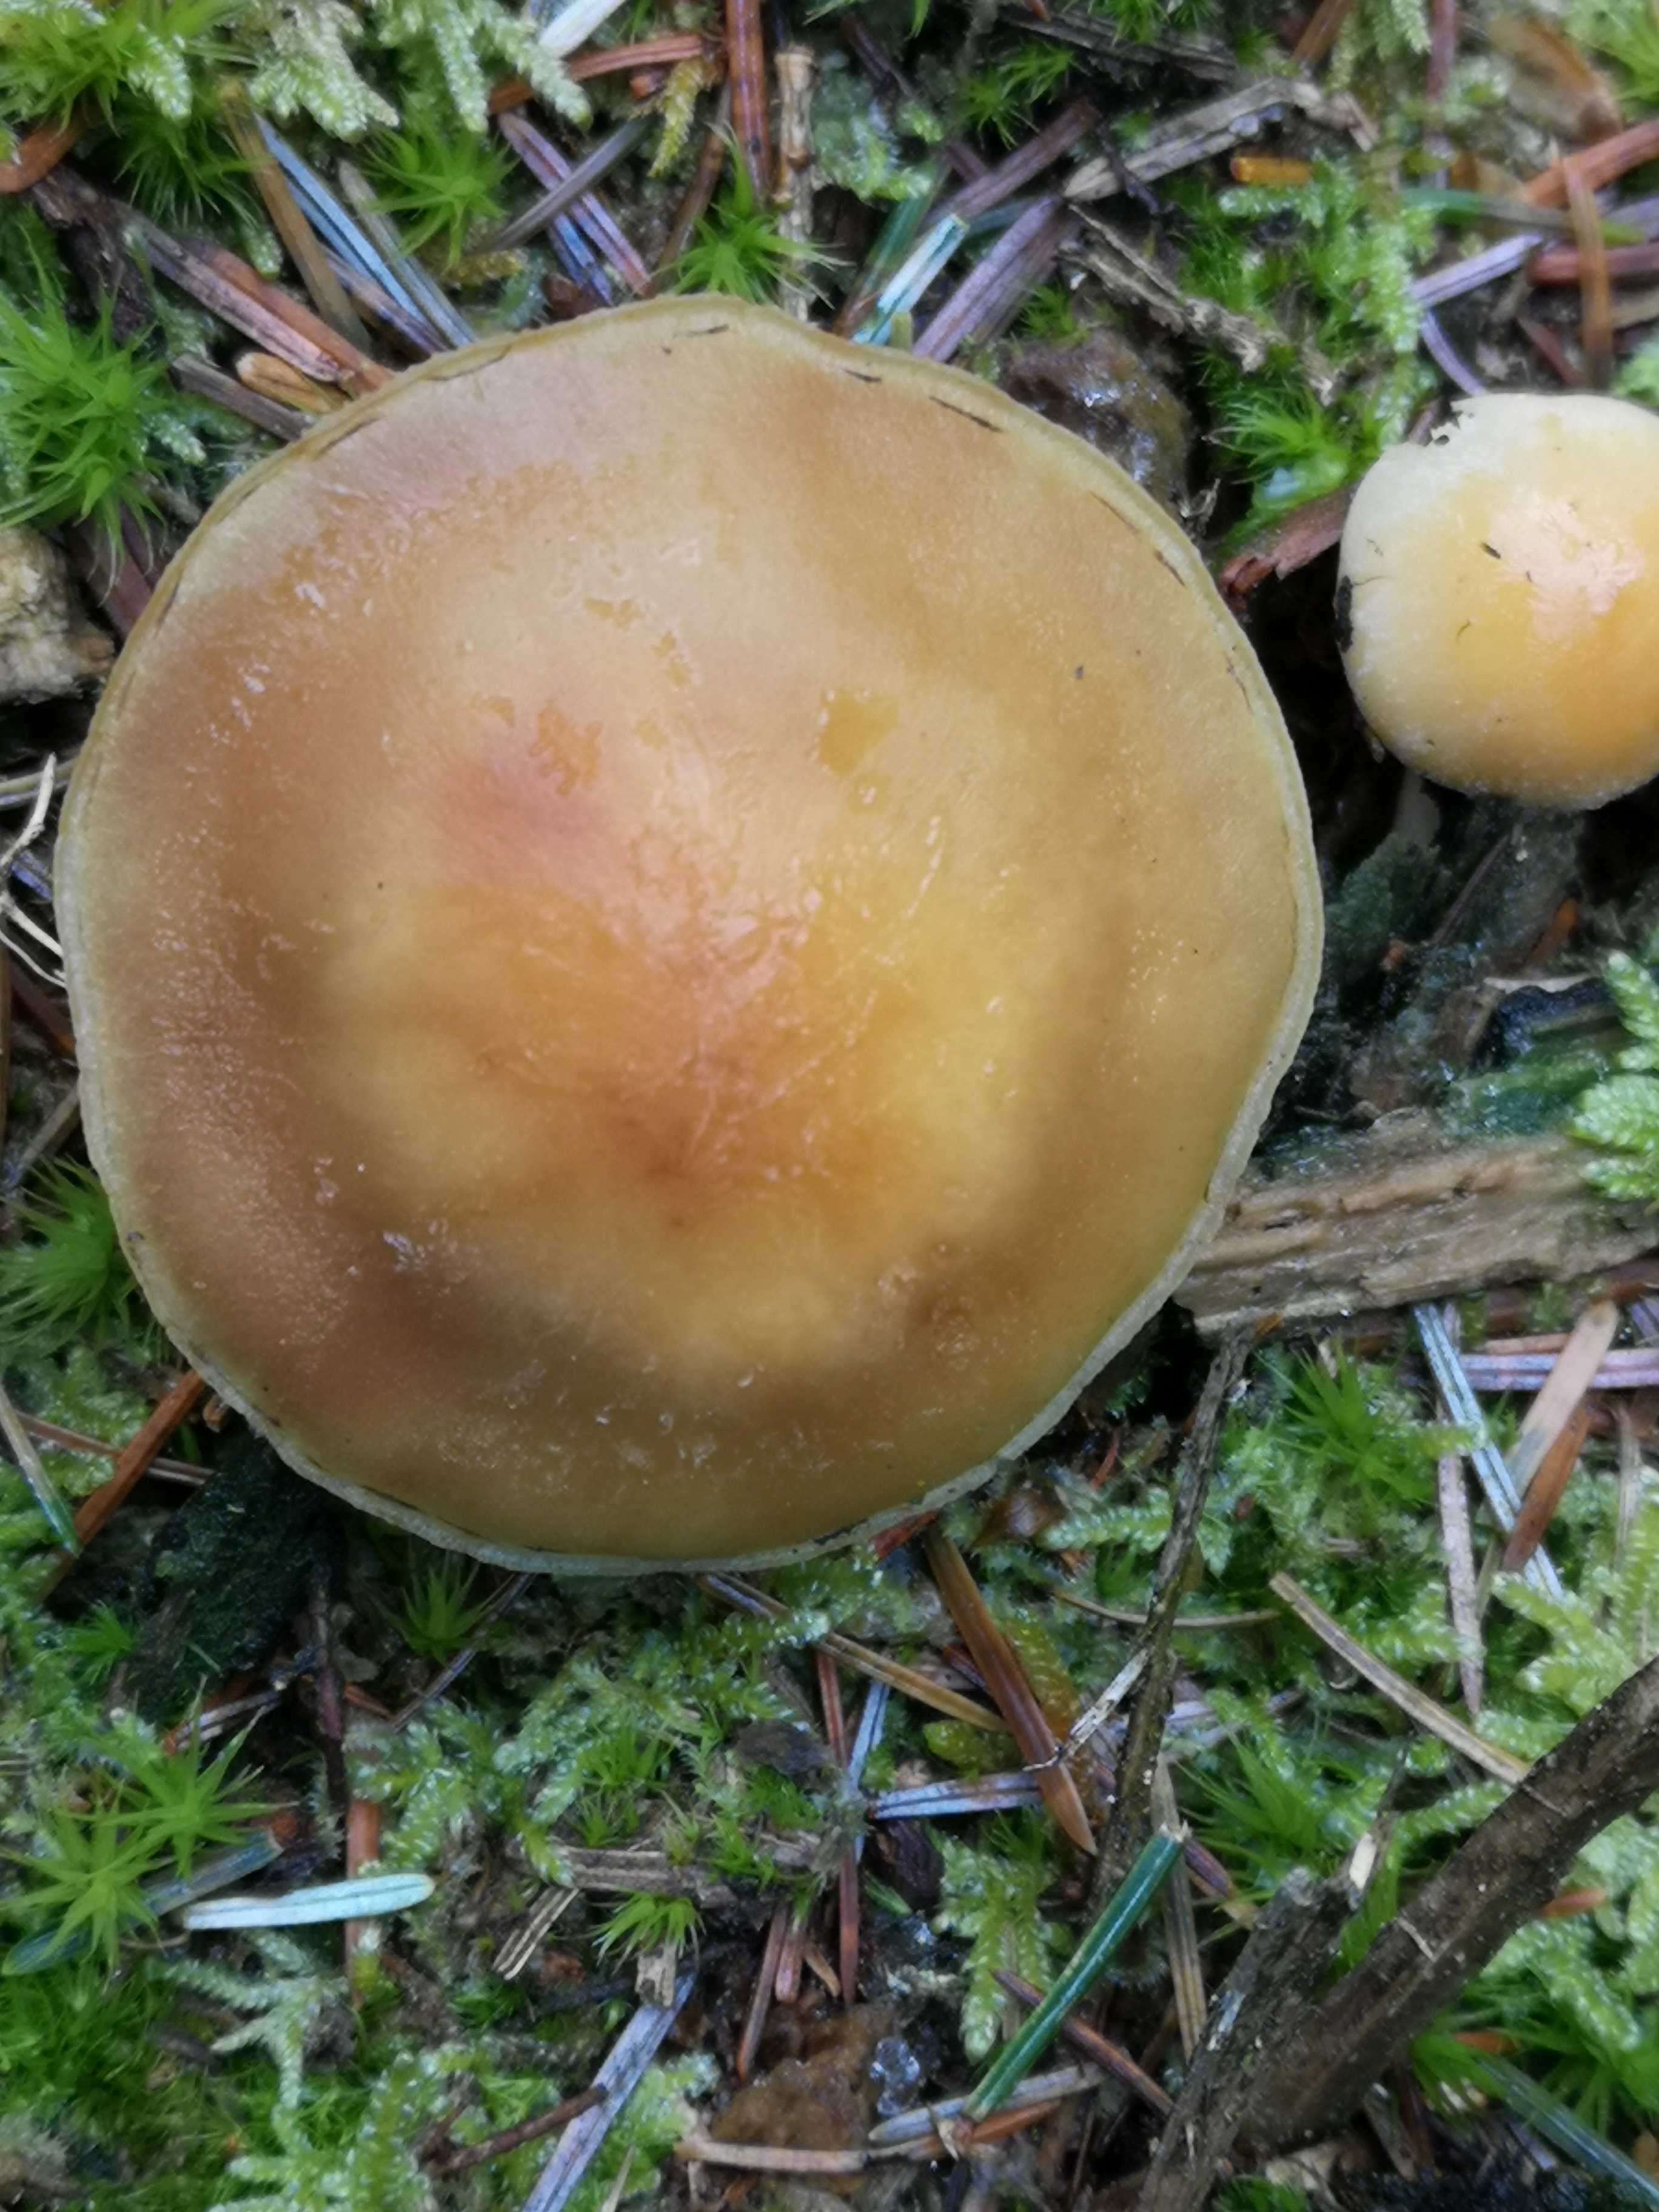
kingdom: Fungi
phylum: Basidiomycota
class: Agaricomycetes
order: Agaricales
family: Strophariaceae
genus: Hypholoma
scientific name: Hypholoma capnoides
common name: gran-svovlhat
